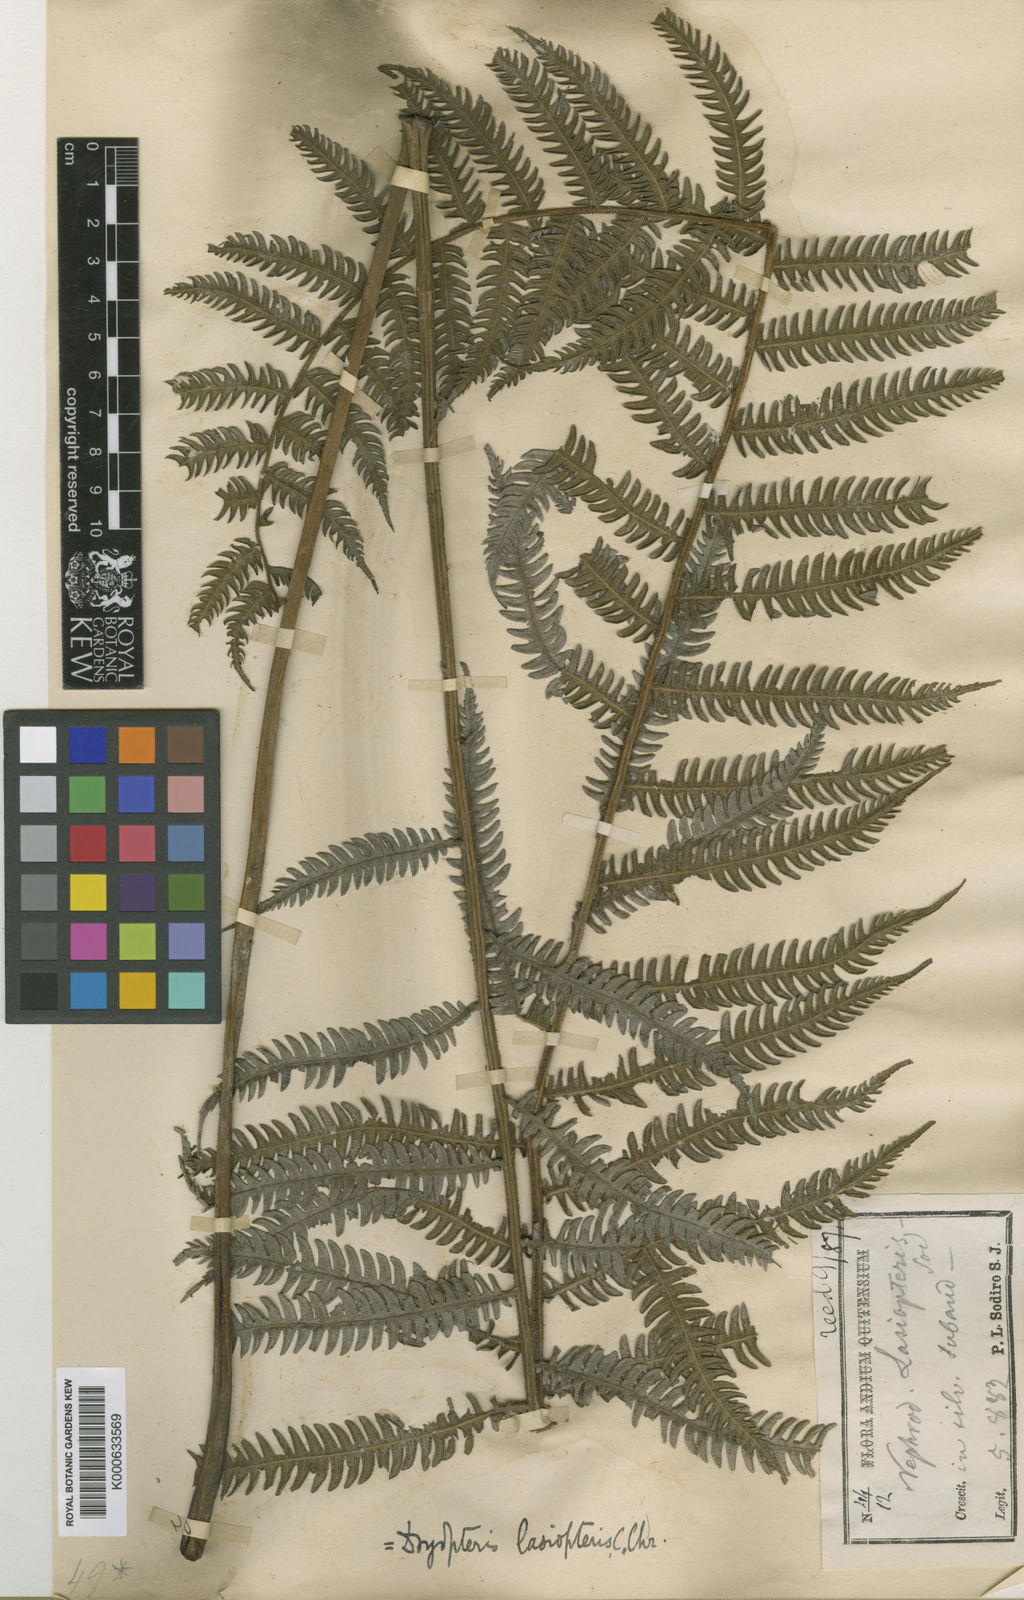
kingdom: Plantae
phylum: Tracheophyta
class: Polypodiopsida
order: Polypodiales
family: Thelypteridaceae
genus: Amauropelta
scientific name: Amauropelta rudis
